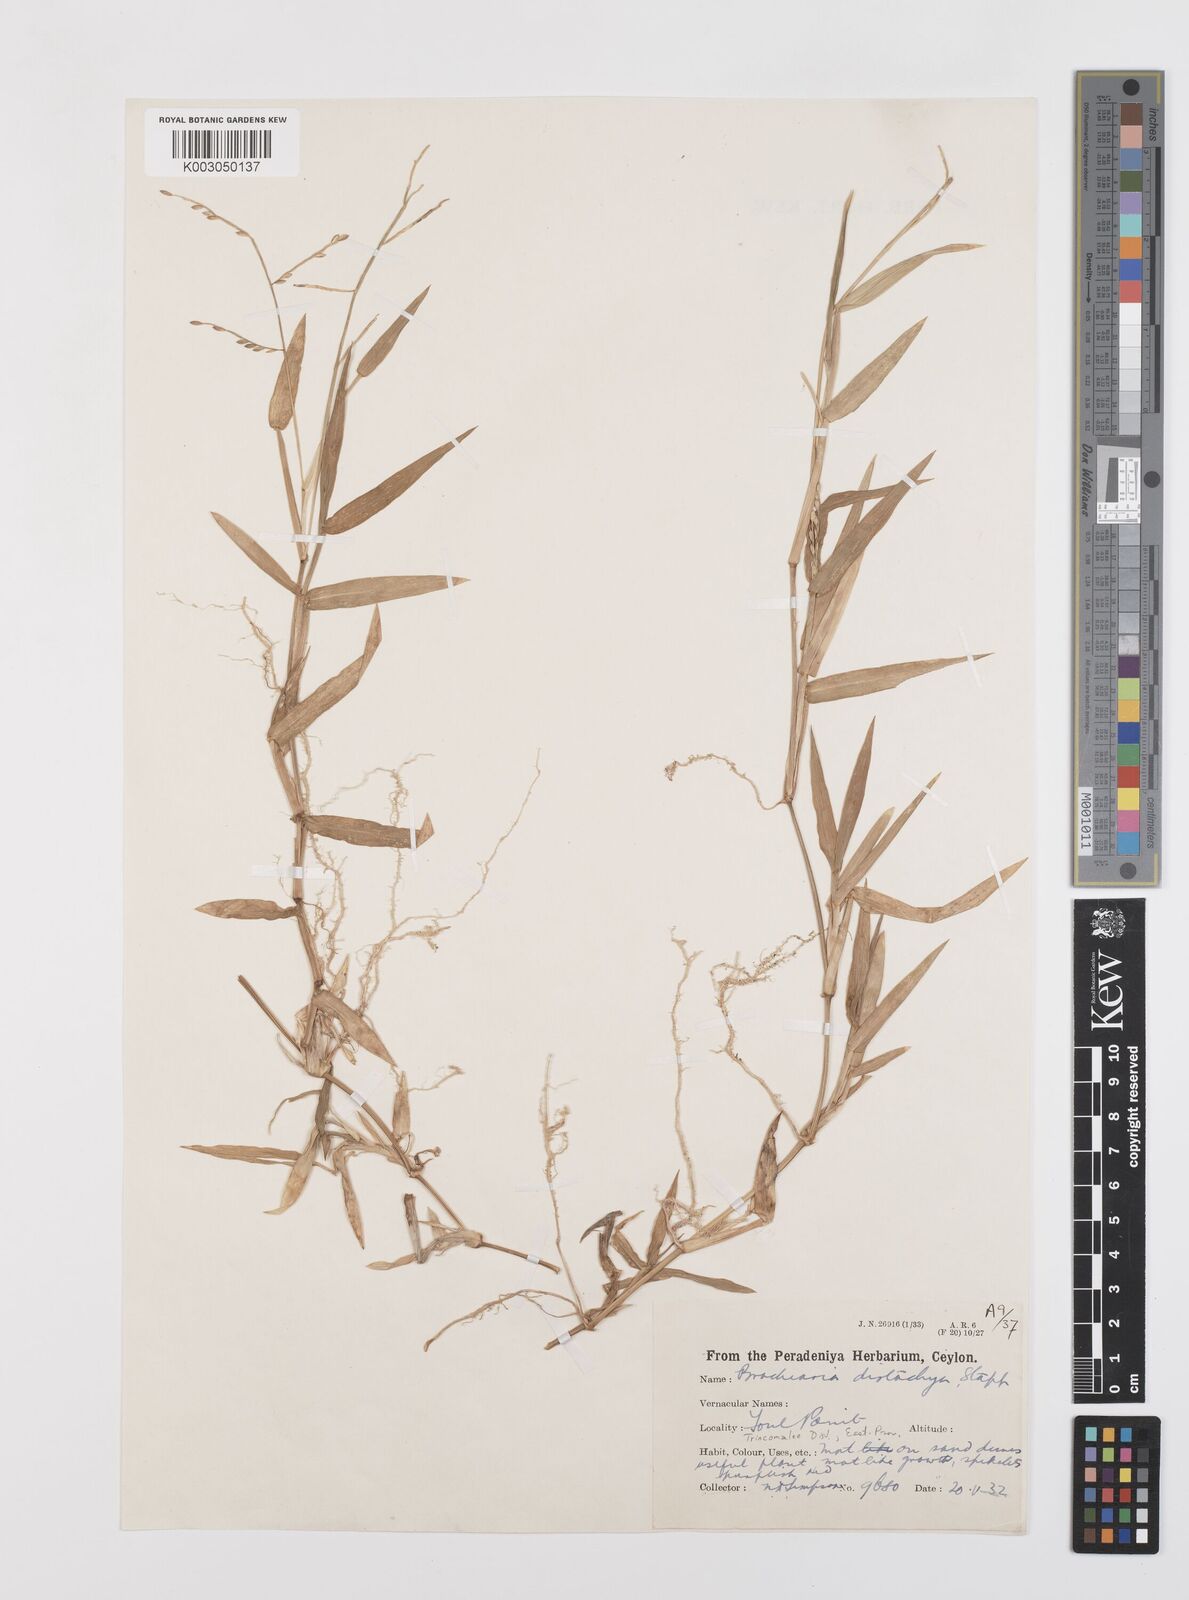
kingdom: Plantae
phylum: Tracheophyta
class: Liliopsida
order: Poales
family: Poaceae
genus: Urochloa
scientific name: Urochloa subquadripara
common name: Armgrass millet
